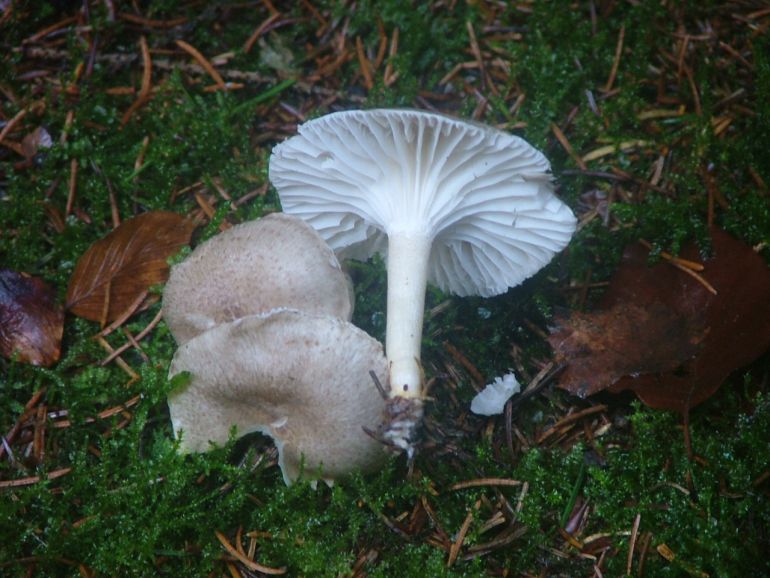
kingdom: Fungi
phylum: Basidiomycota
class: Agaricomycetes
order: Agaricales
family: Hygrophoraceae
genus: Hygrophorus
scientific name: Hygrophorus pustulatus
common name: mørkprikket sneglehat
